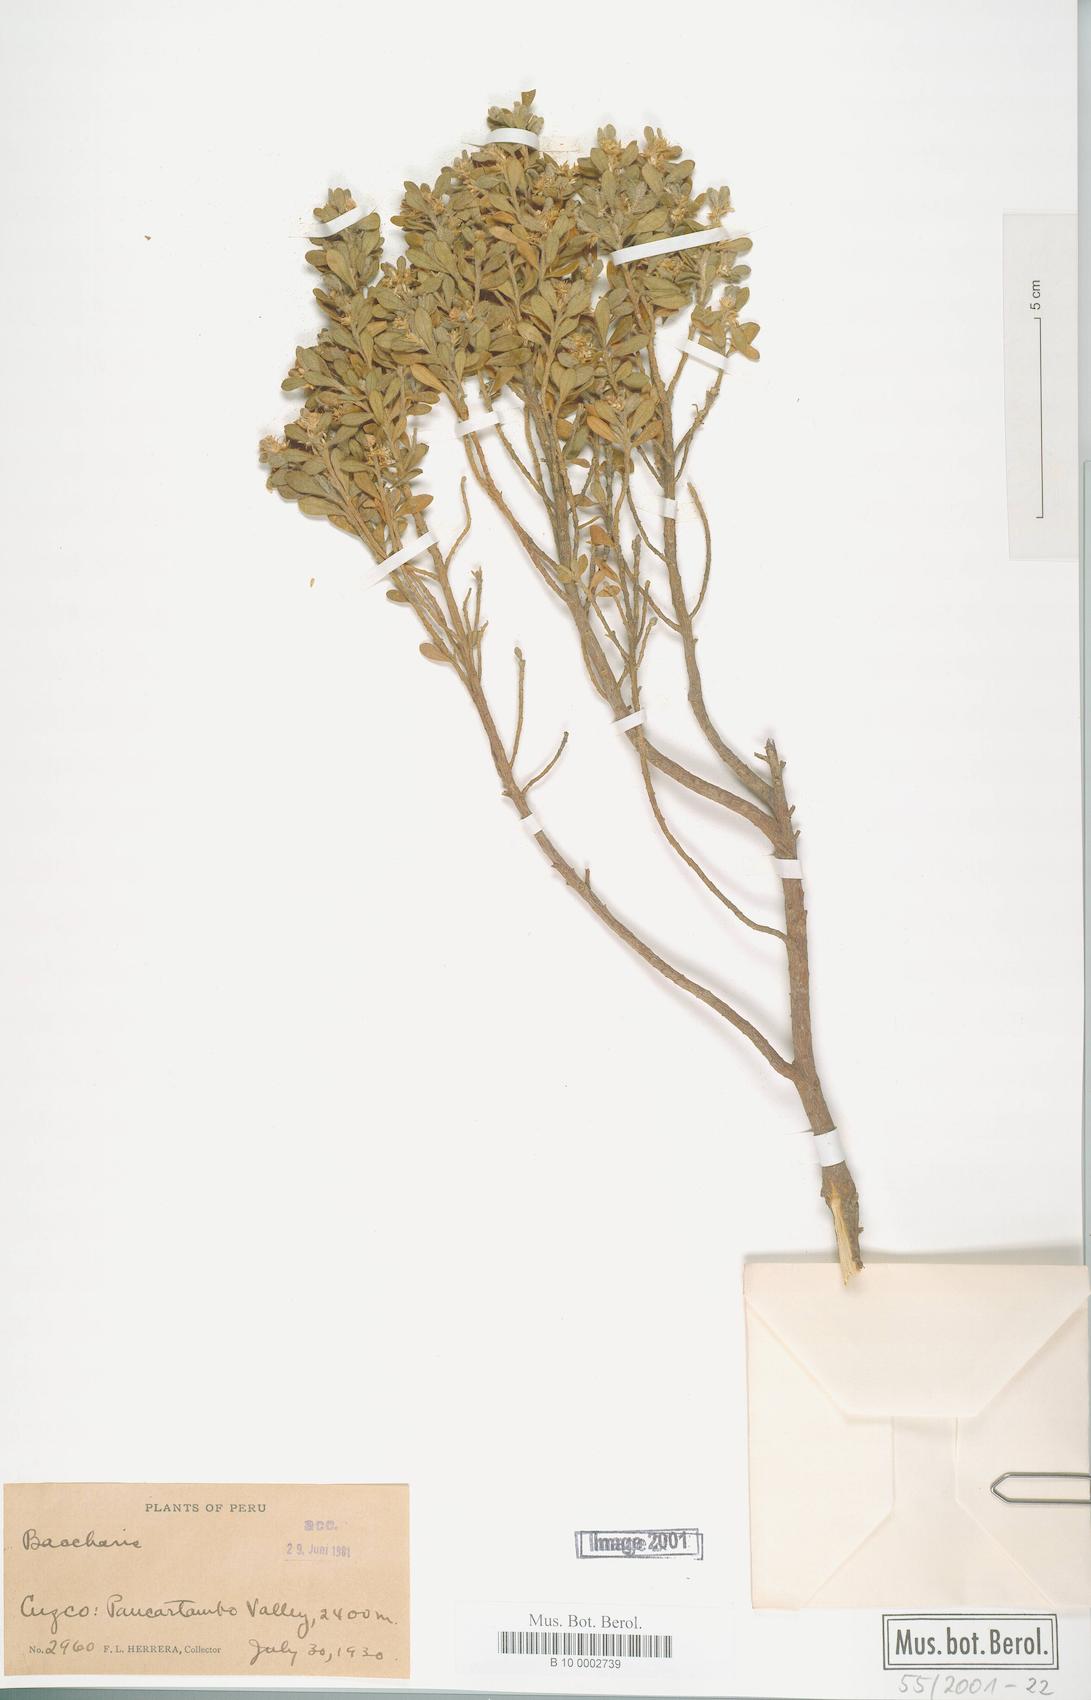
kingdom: Plantae
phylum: Tracheophyta
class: Magnoliopsida
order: Asterales
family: Asteraceae
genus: Baccharis
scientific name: Baccharis
